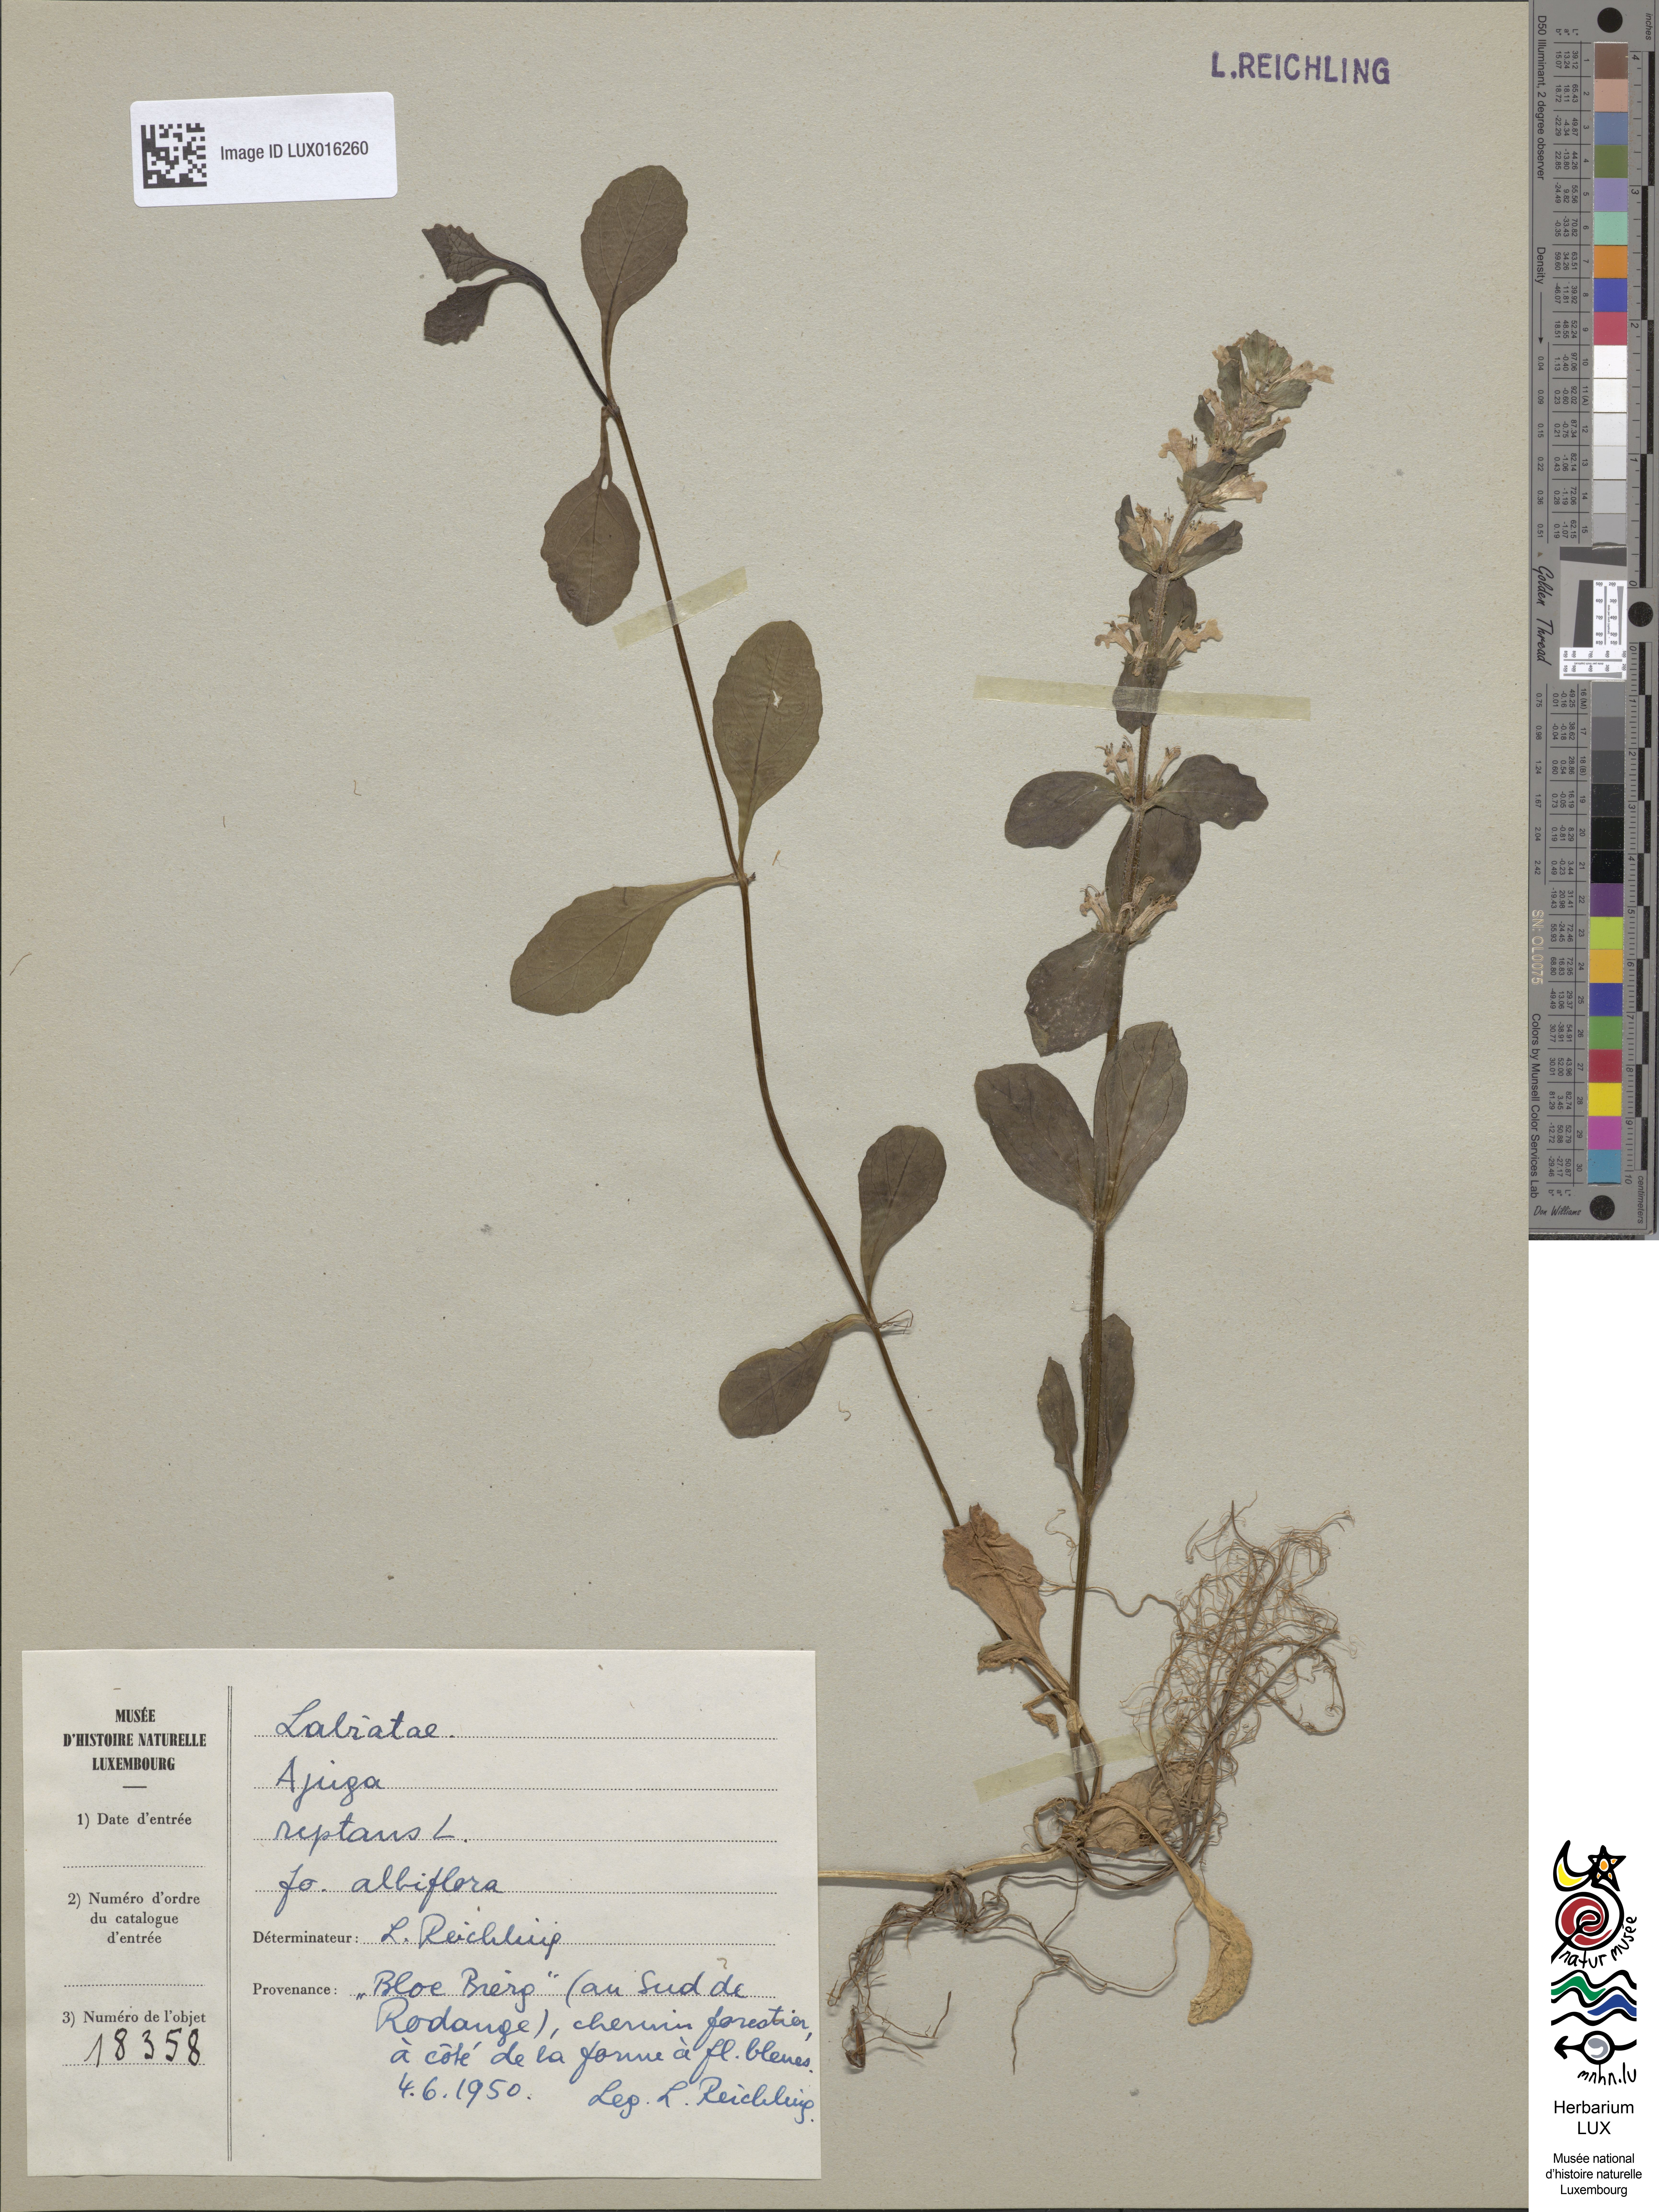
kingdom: Plantae
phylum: Tracheophyta
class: Magnoliopsida
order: Lamiales
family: Lamiaceae
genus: Ajuga
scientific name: Ajuga reptans
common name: Bugle
